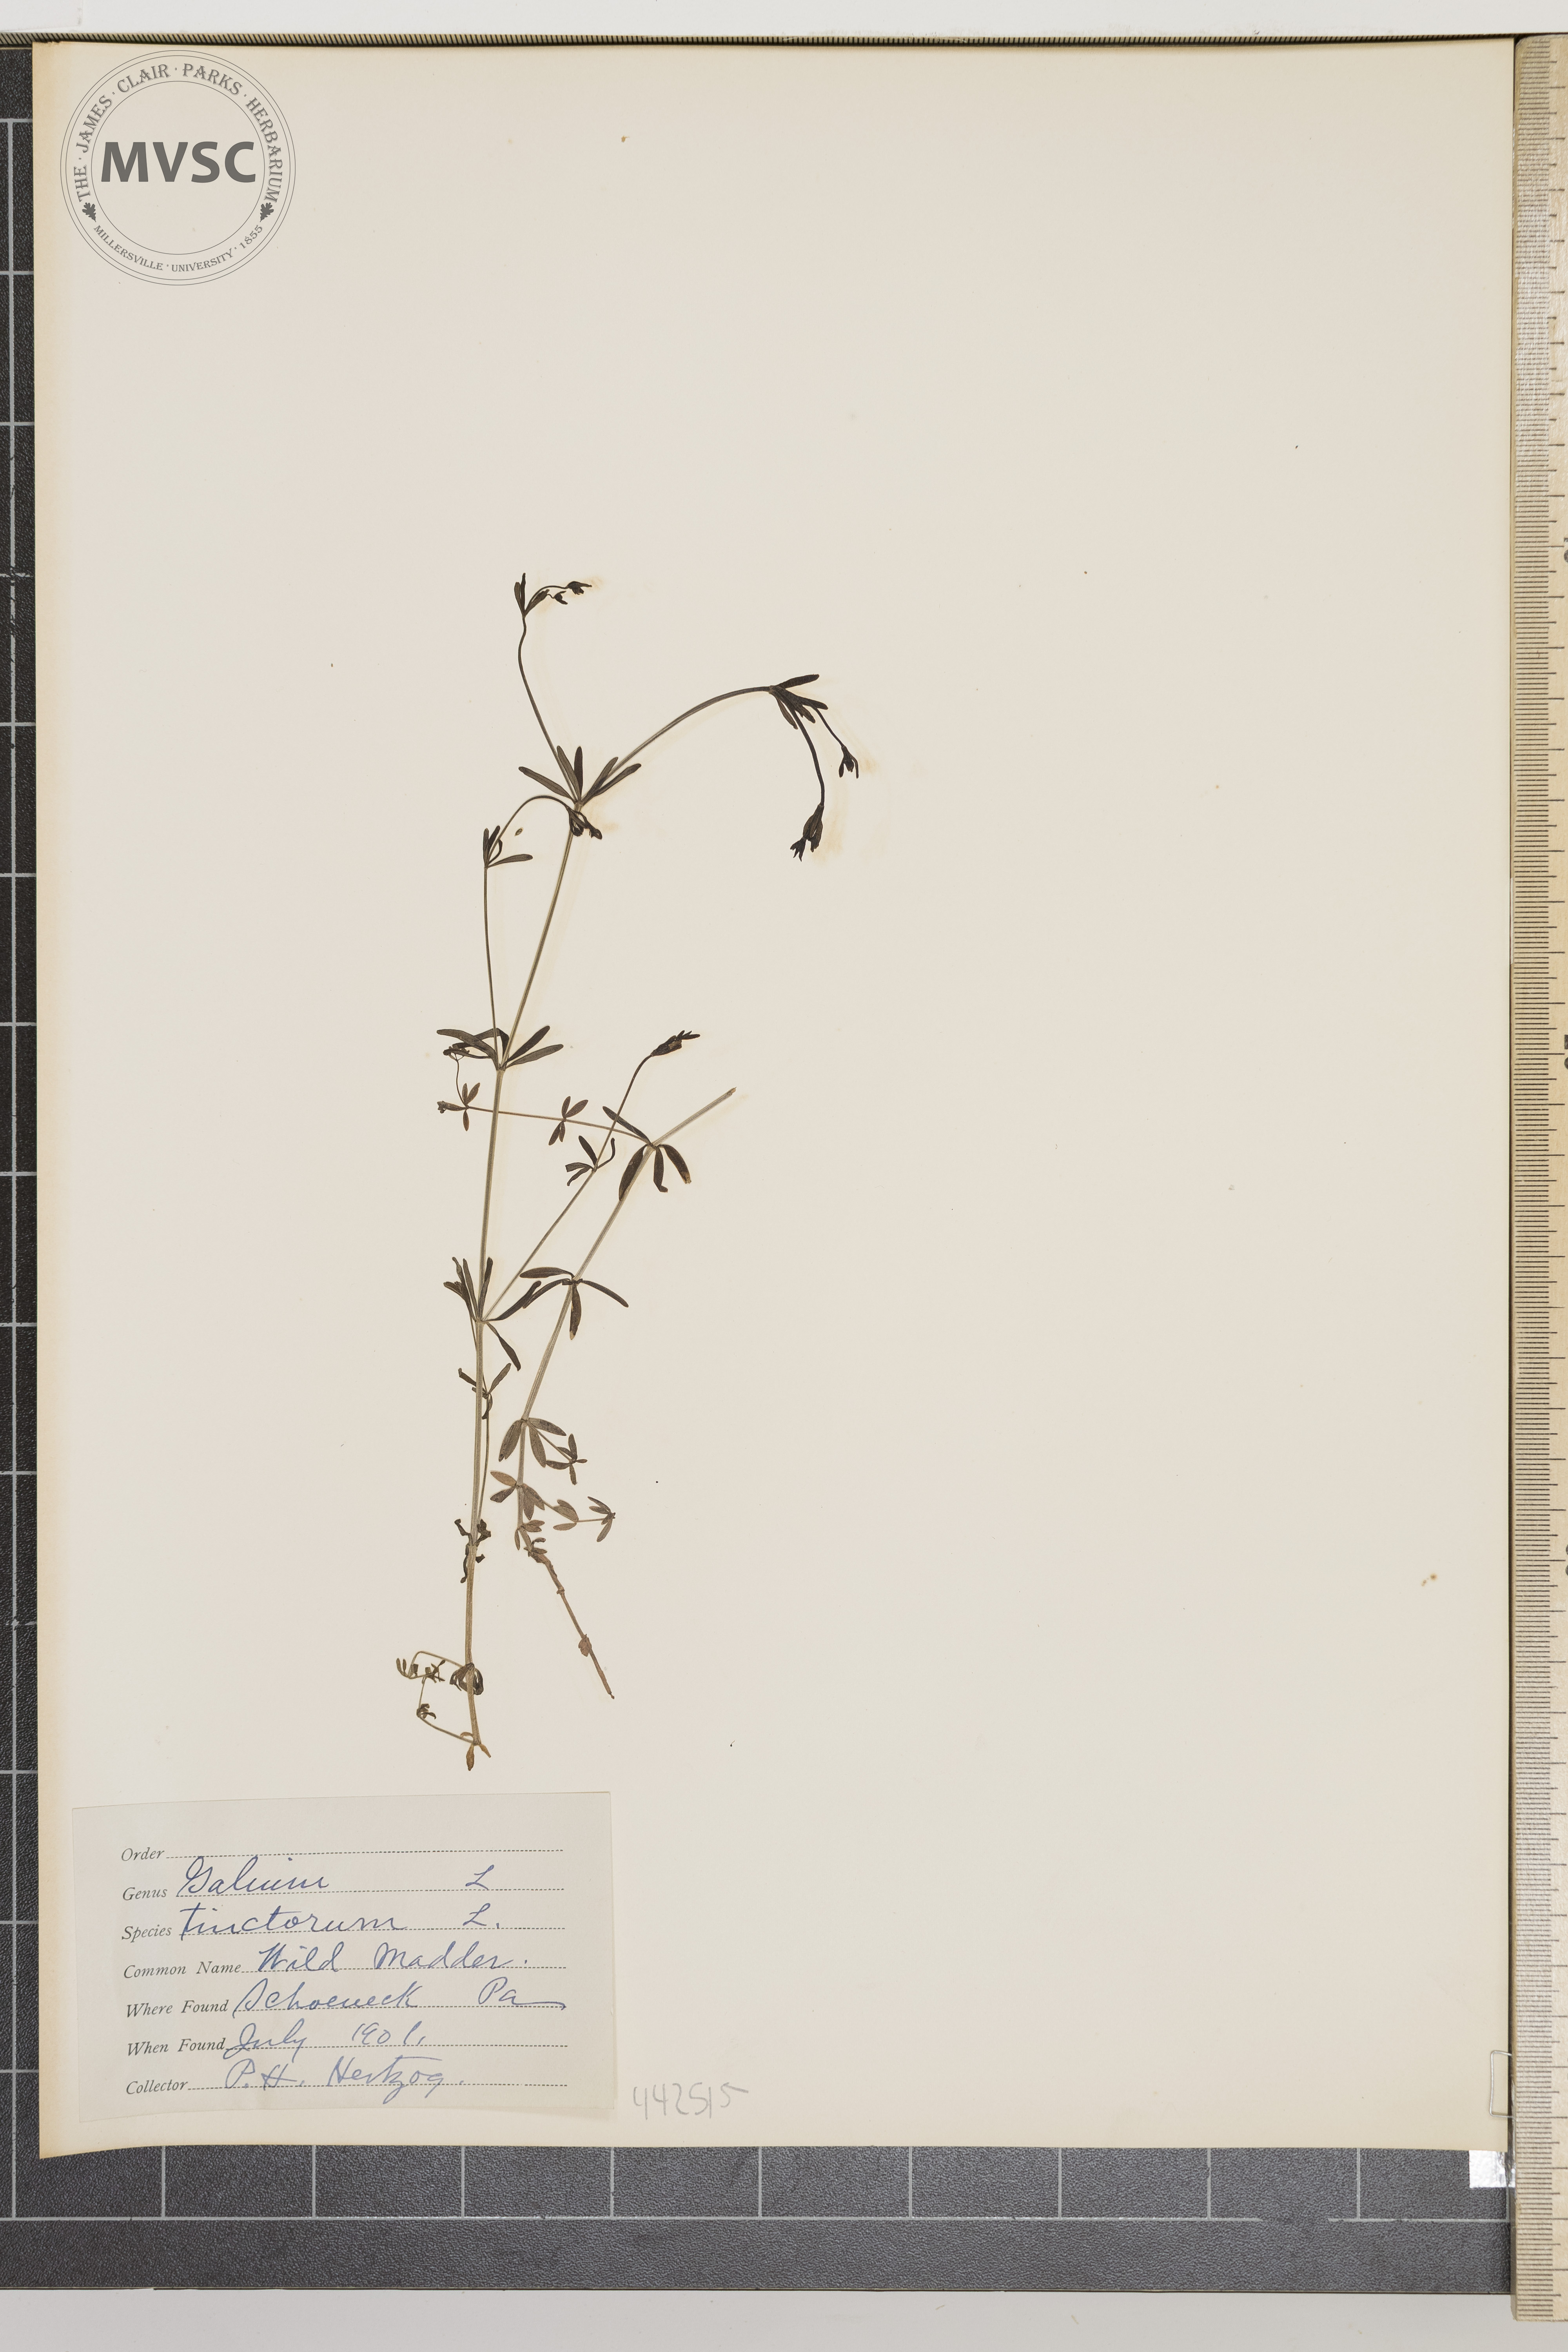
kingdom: Plantae
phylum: Tracheophyta
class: Magnoliopsida
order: Gentianales
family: Rubiaceae
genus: Galium
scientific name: Galium tinctorium
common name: Bedstraw
